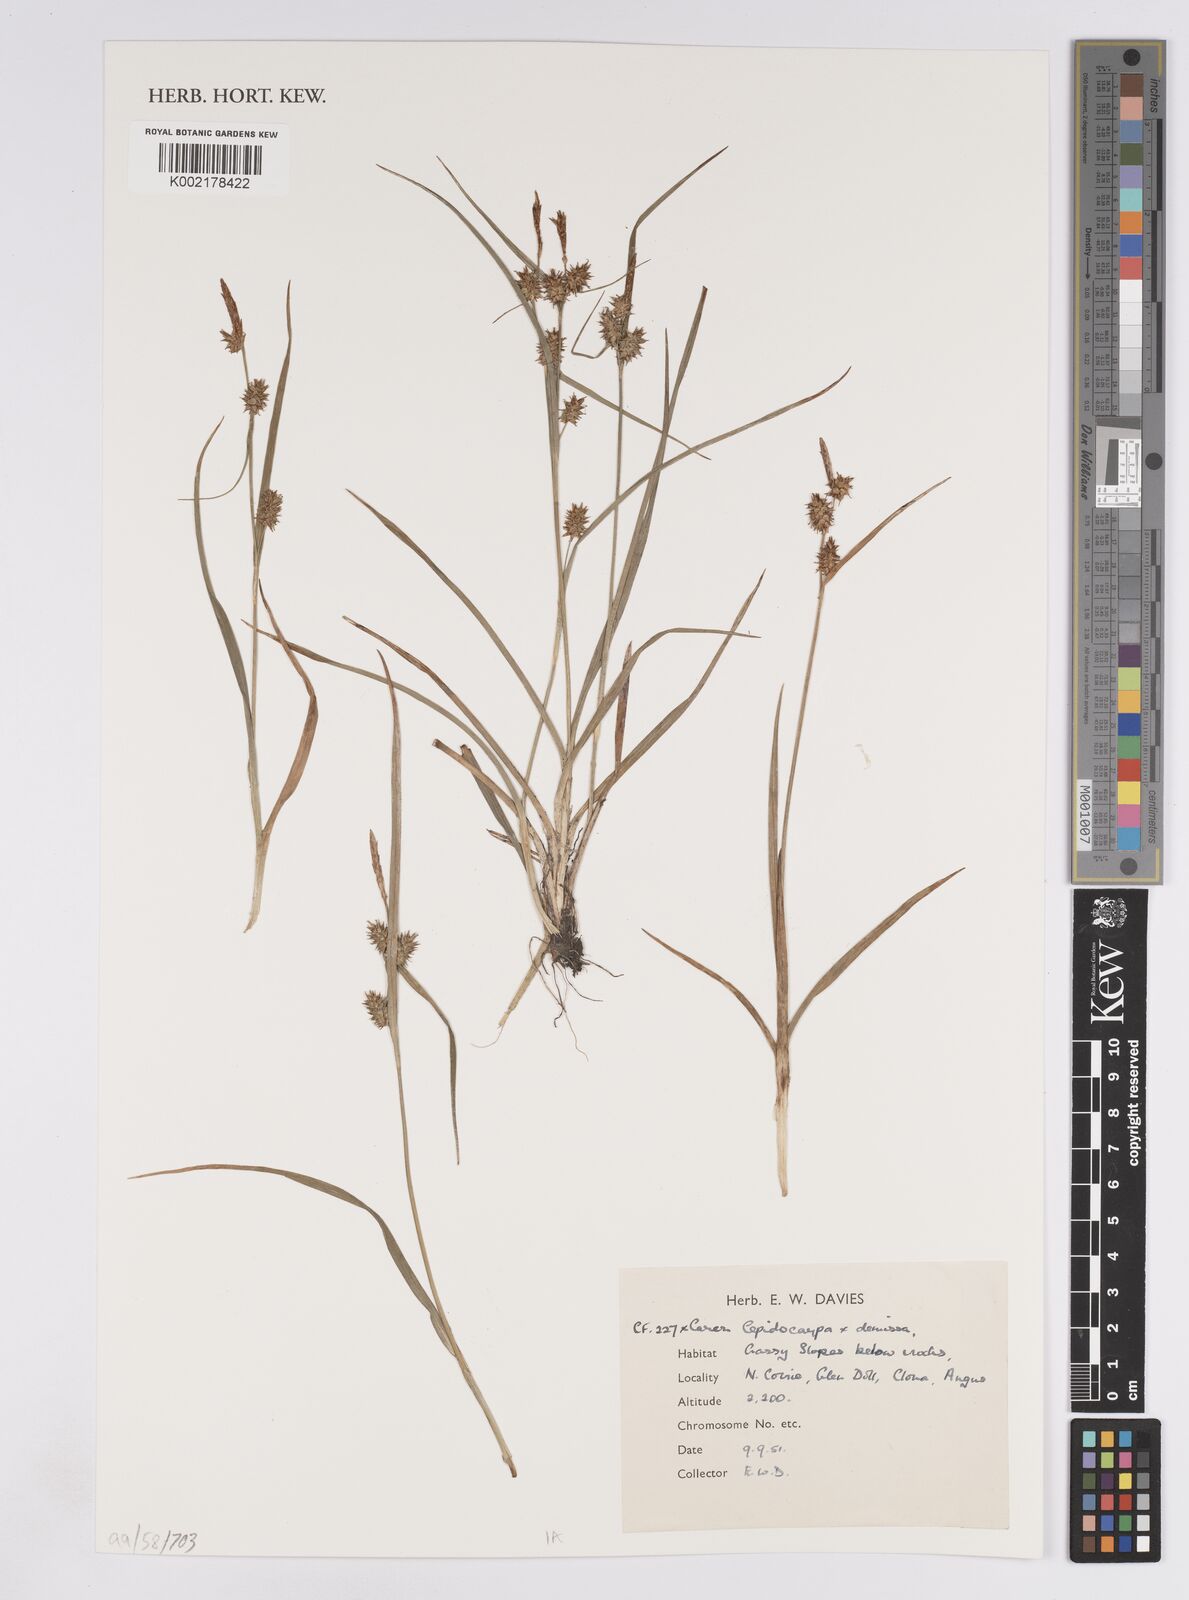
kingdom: Plantae
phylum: Tracheophyta
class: Liliopsida
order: Poales
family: Cyperaceae
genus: Carex
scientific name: Carex lepidocarpa
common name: Long-stalked yellow-sedge
